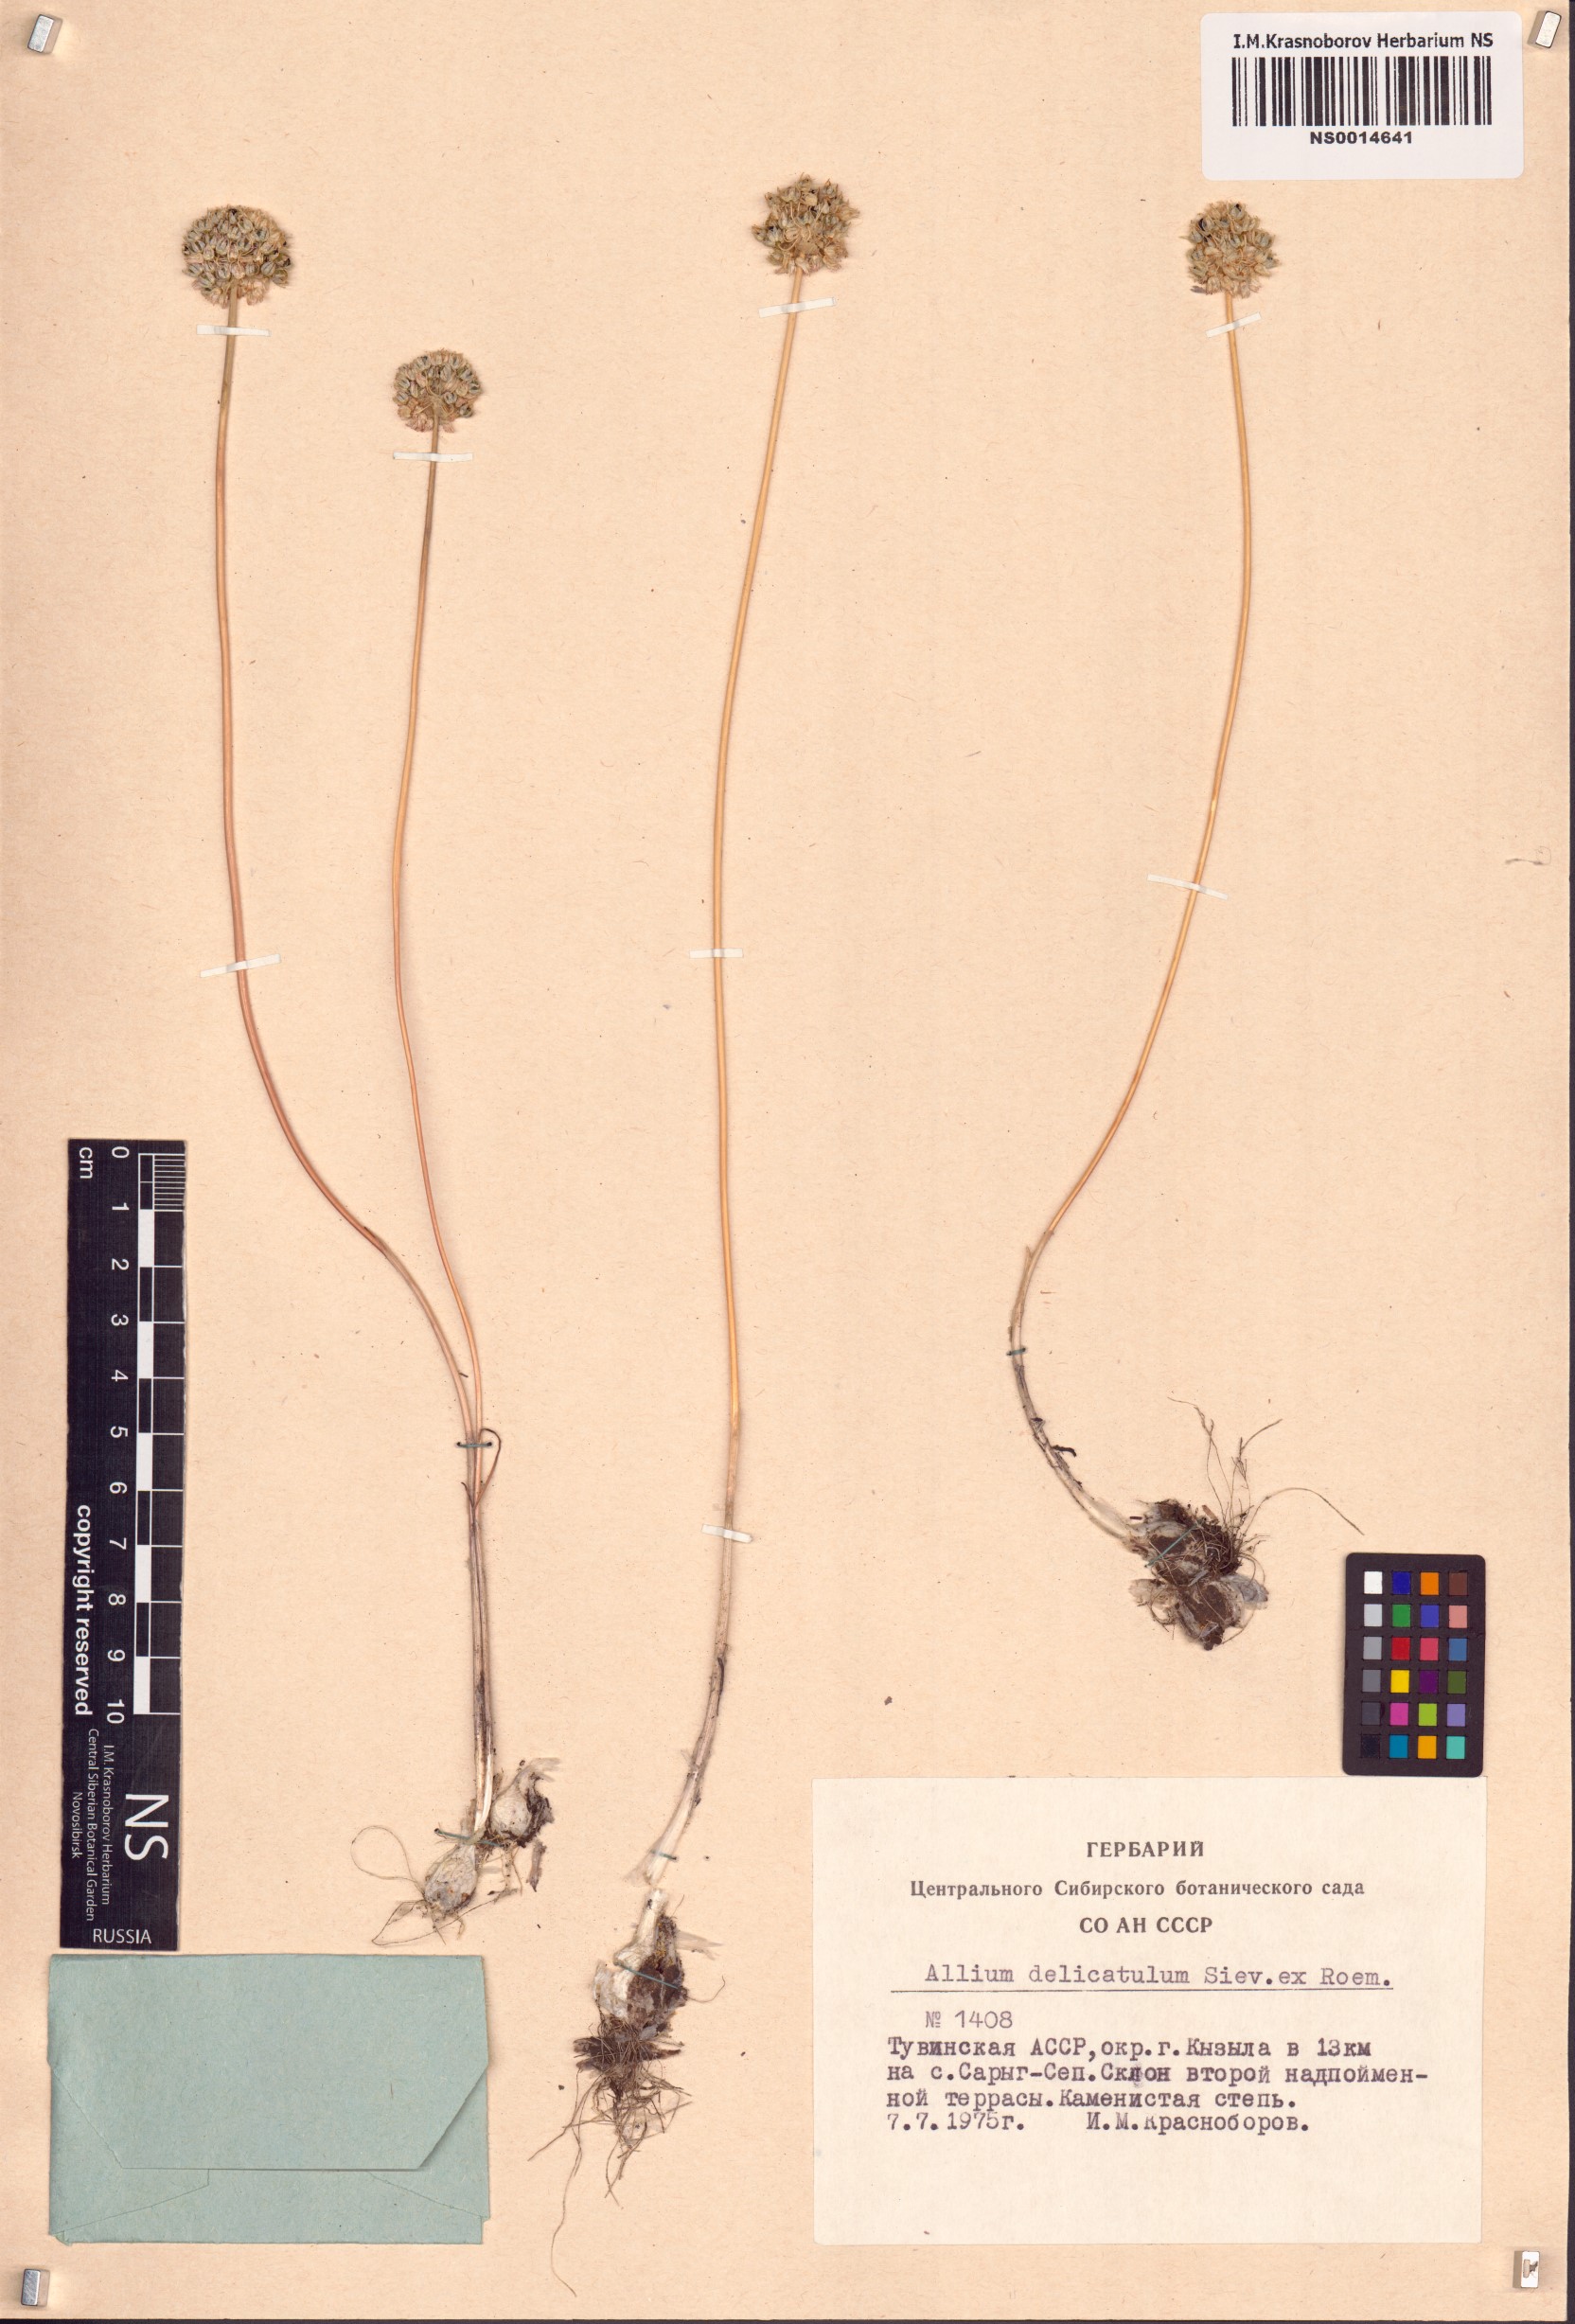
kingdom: Plantae
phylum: Tracheophyta
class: Liliopsida
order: Asparagales
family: Amaryllidaceae
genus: Allium
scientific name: Allium delicatulum
